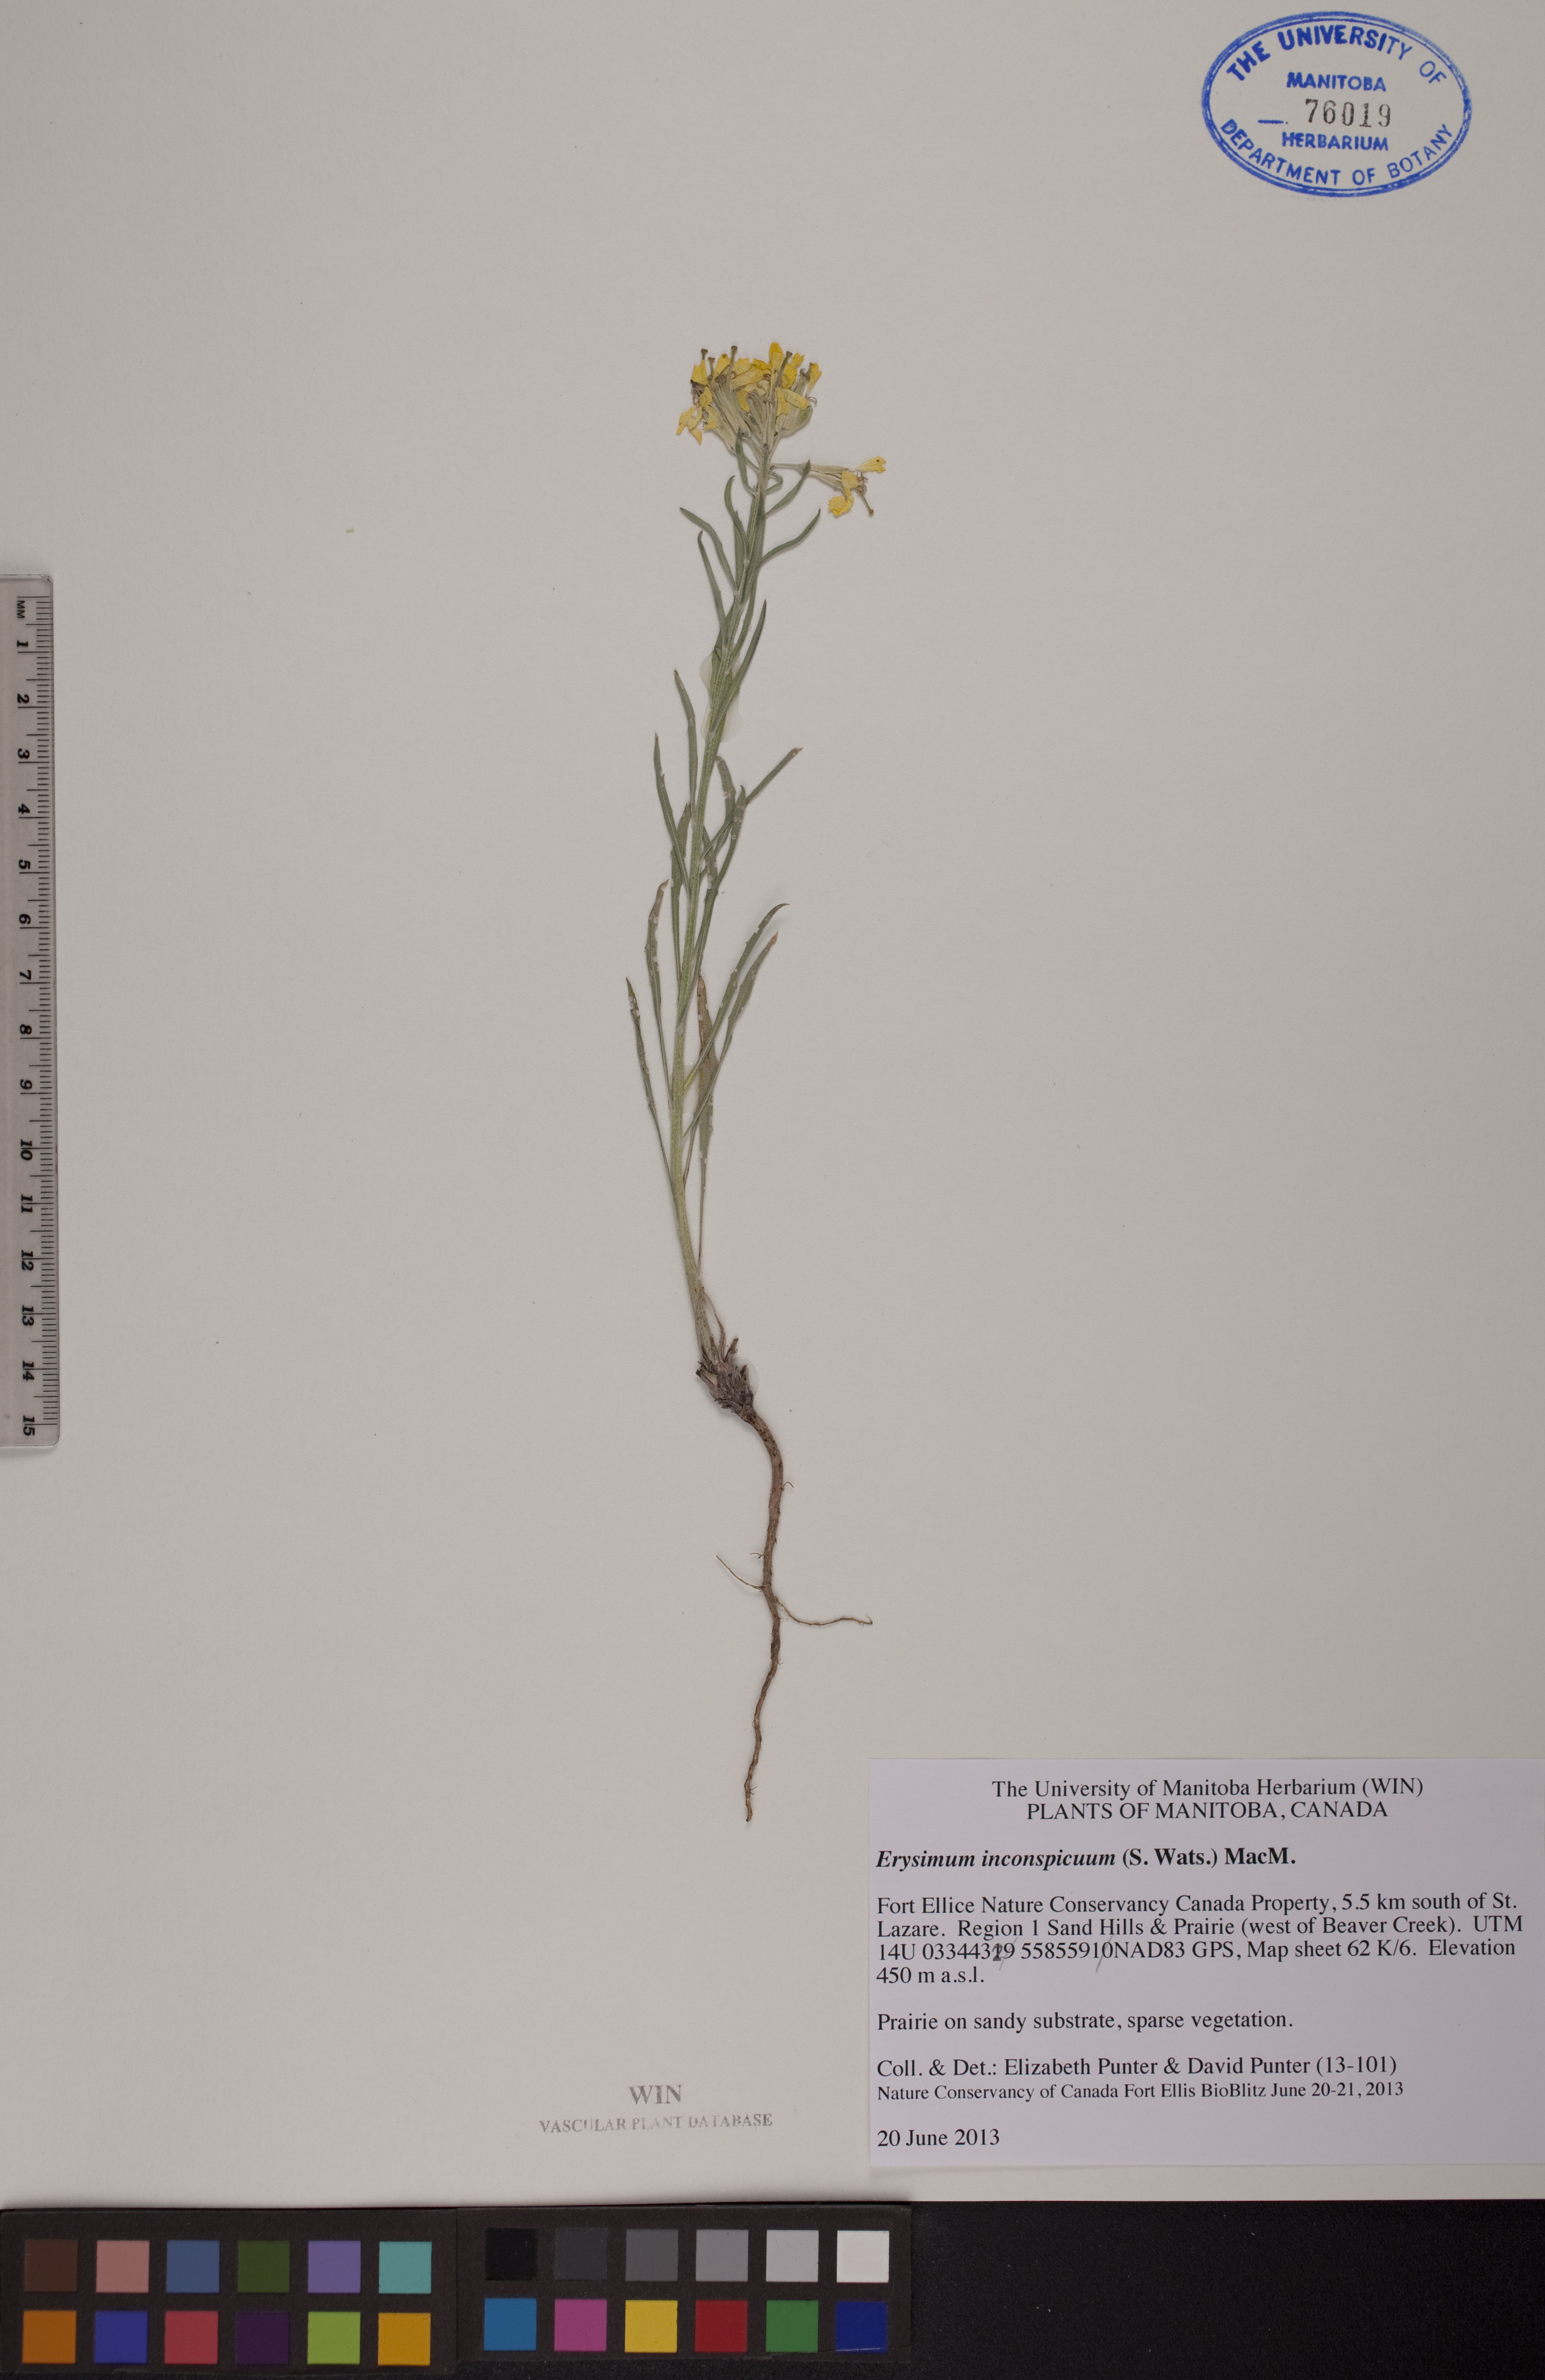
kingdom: Plantae
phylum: Tracheophyta
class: Magnoliopsida
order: Brassicales
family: Brassicaceae
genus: Erysimum
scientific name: Erysimum inconspicuum
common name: Shy wallflower
